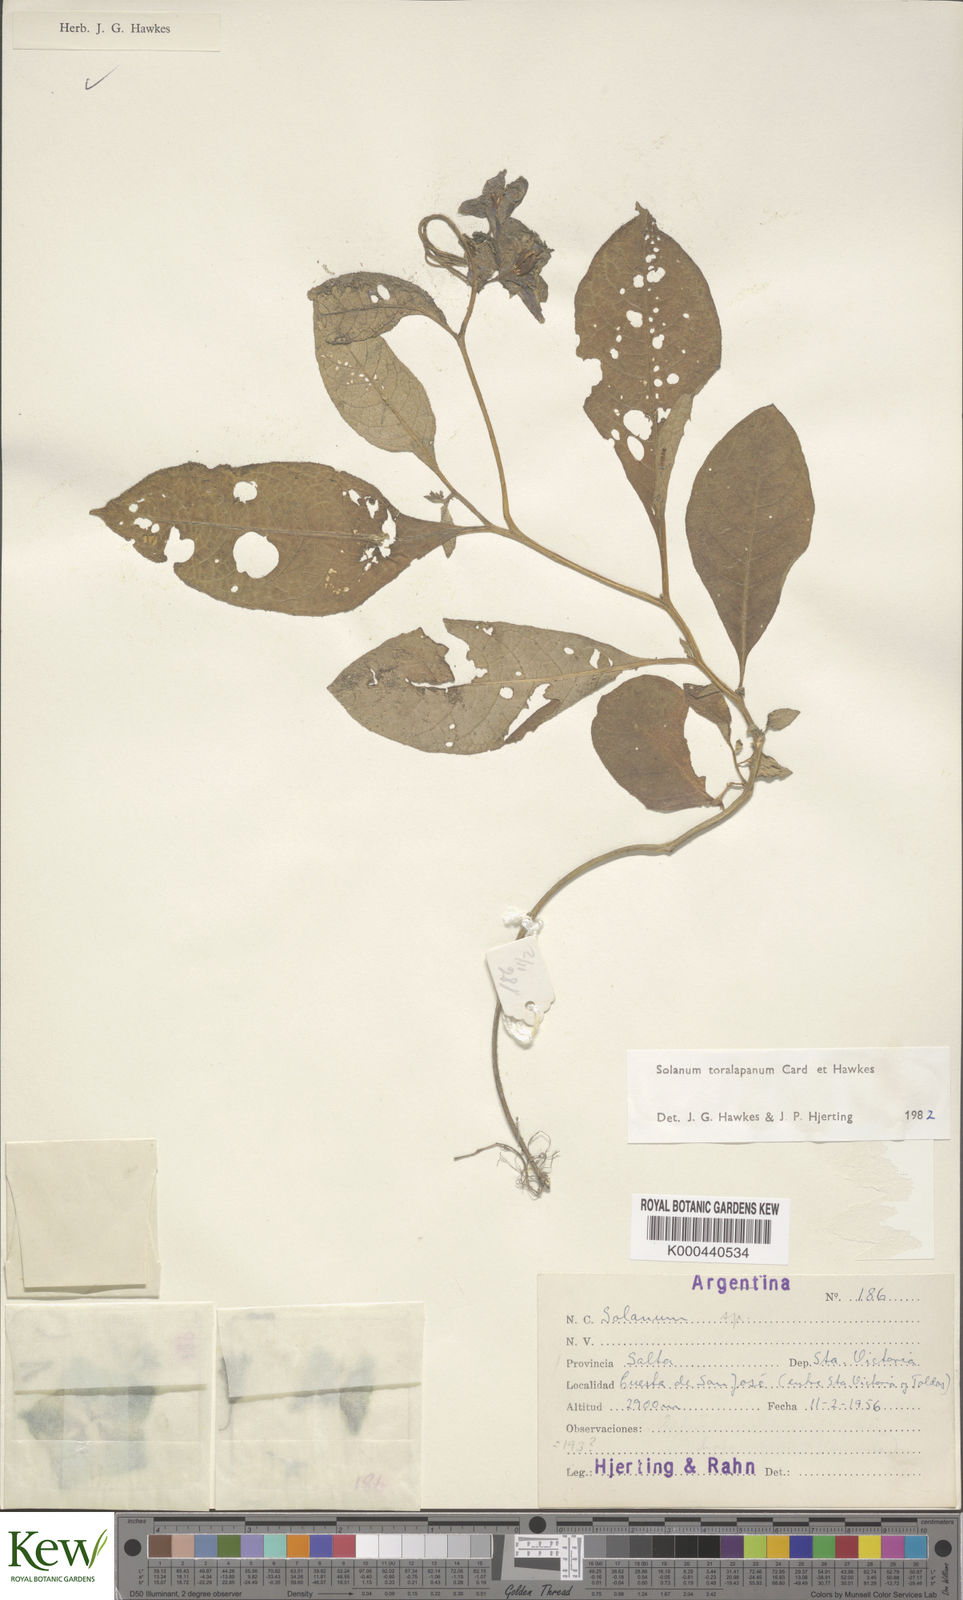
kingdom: Plantae
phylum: Tracheophyta
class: Magnoliopsida
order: Solanales
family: Solanaceae
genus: Solanum
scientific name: Solanum
